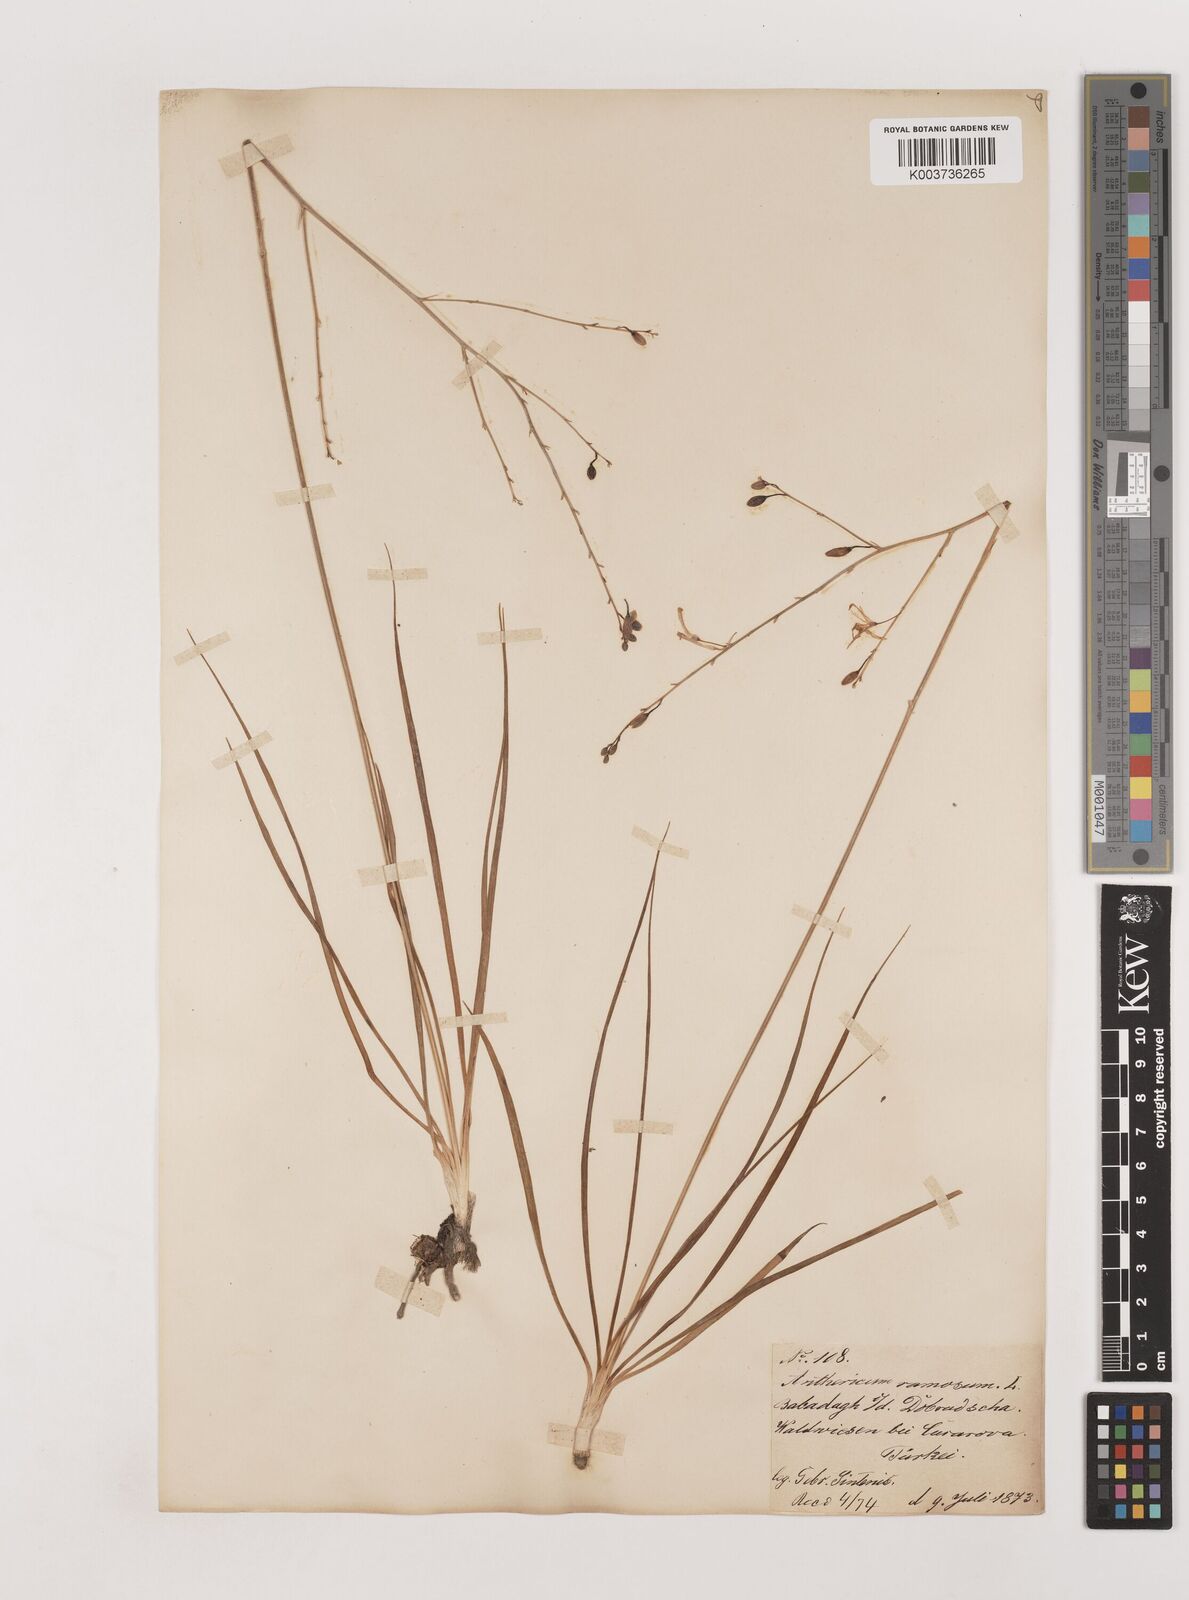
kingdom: Plantae
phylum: Tracheophyta
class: Liliopsida
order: Asparagales
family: Asparagaceae
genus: Anthericum
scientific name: Anthericum ramosum
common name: Branched st. bernard's-lily
